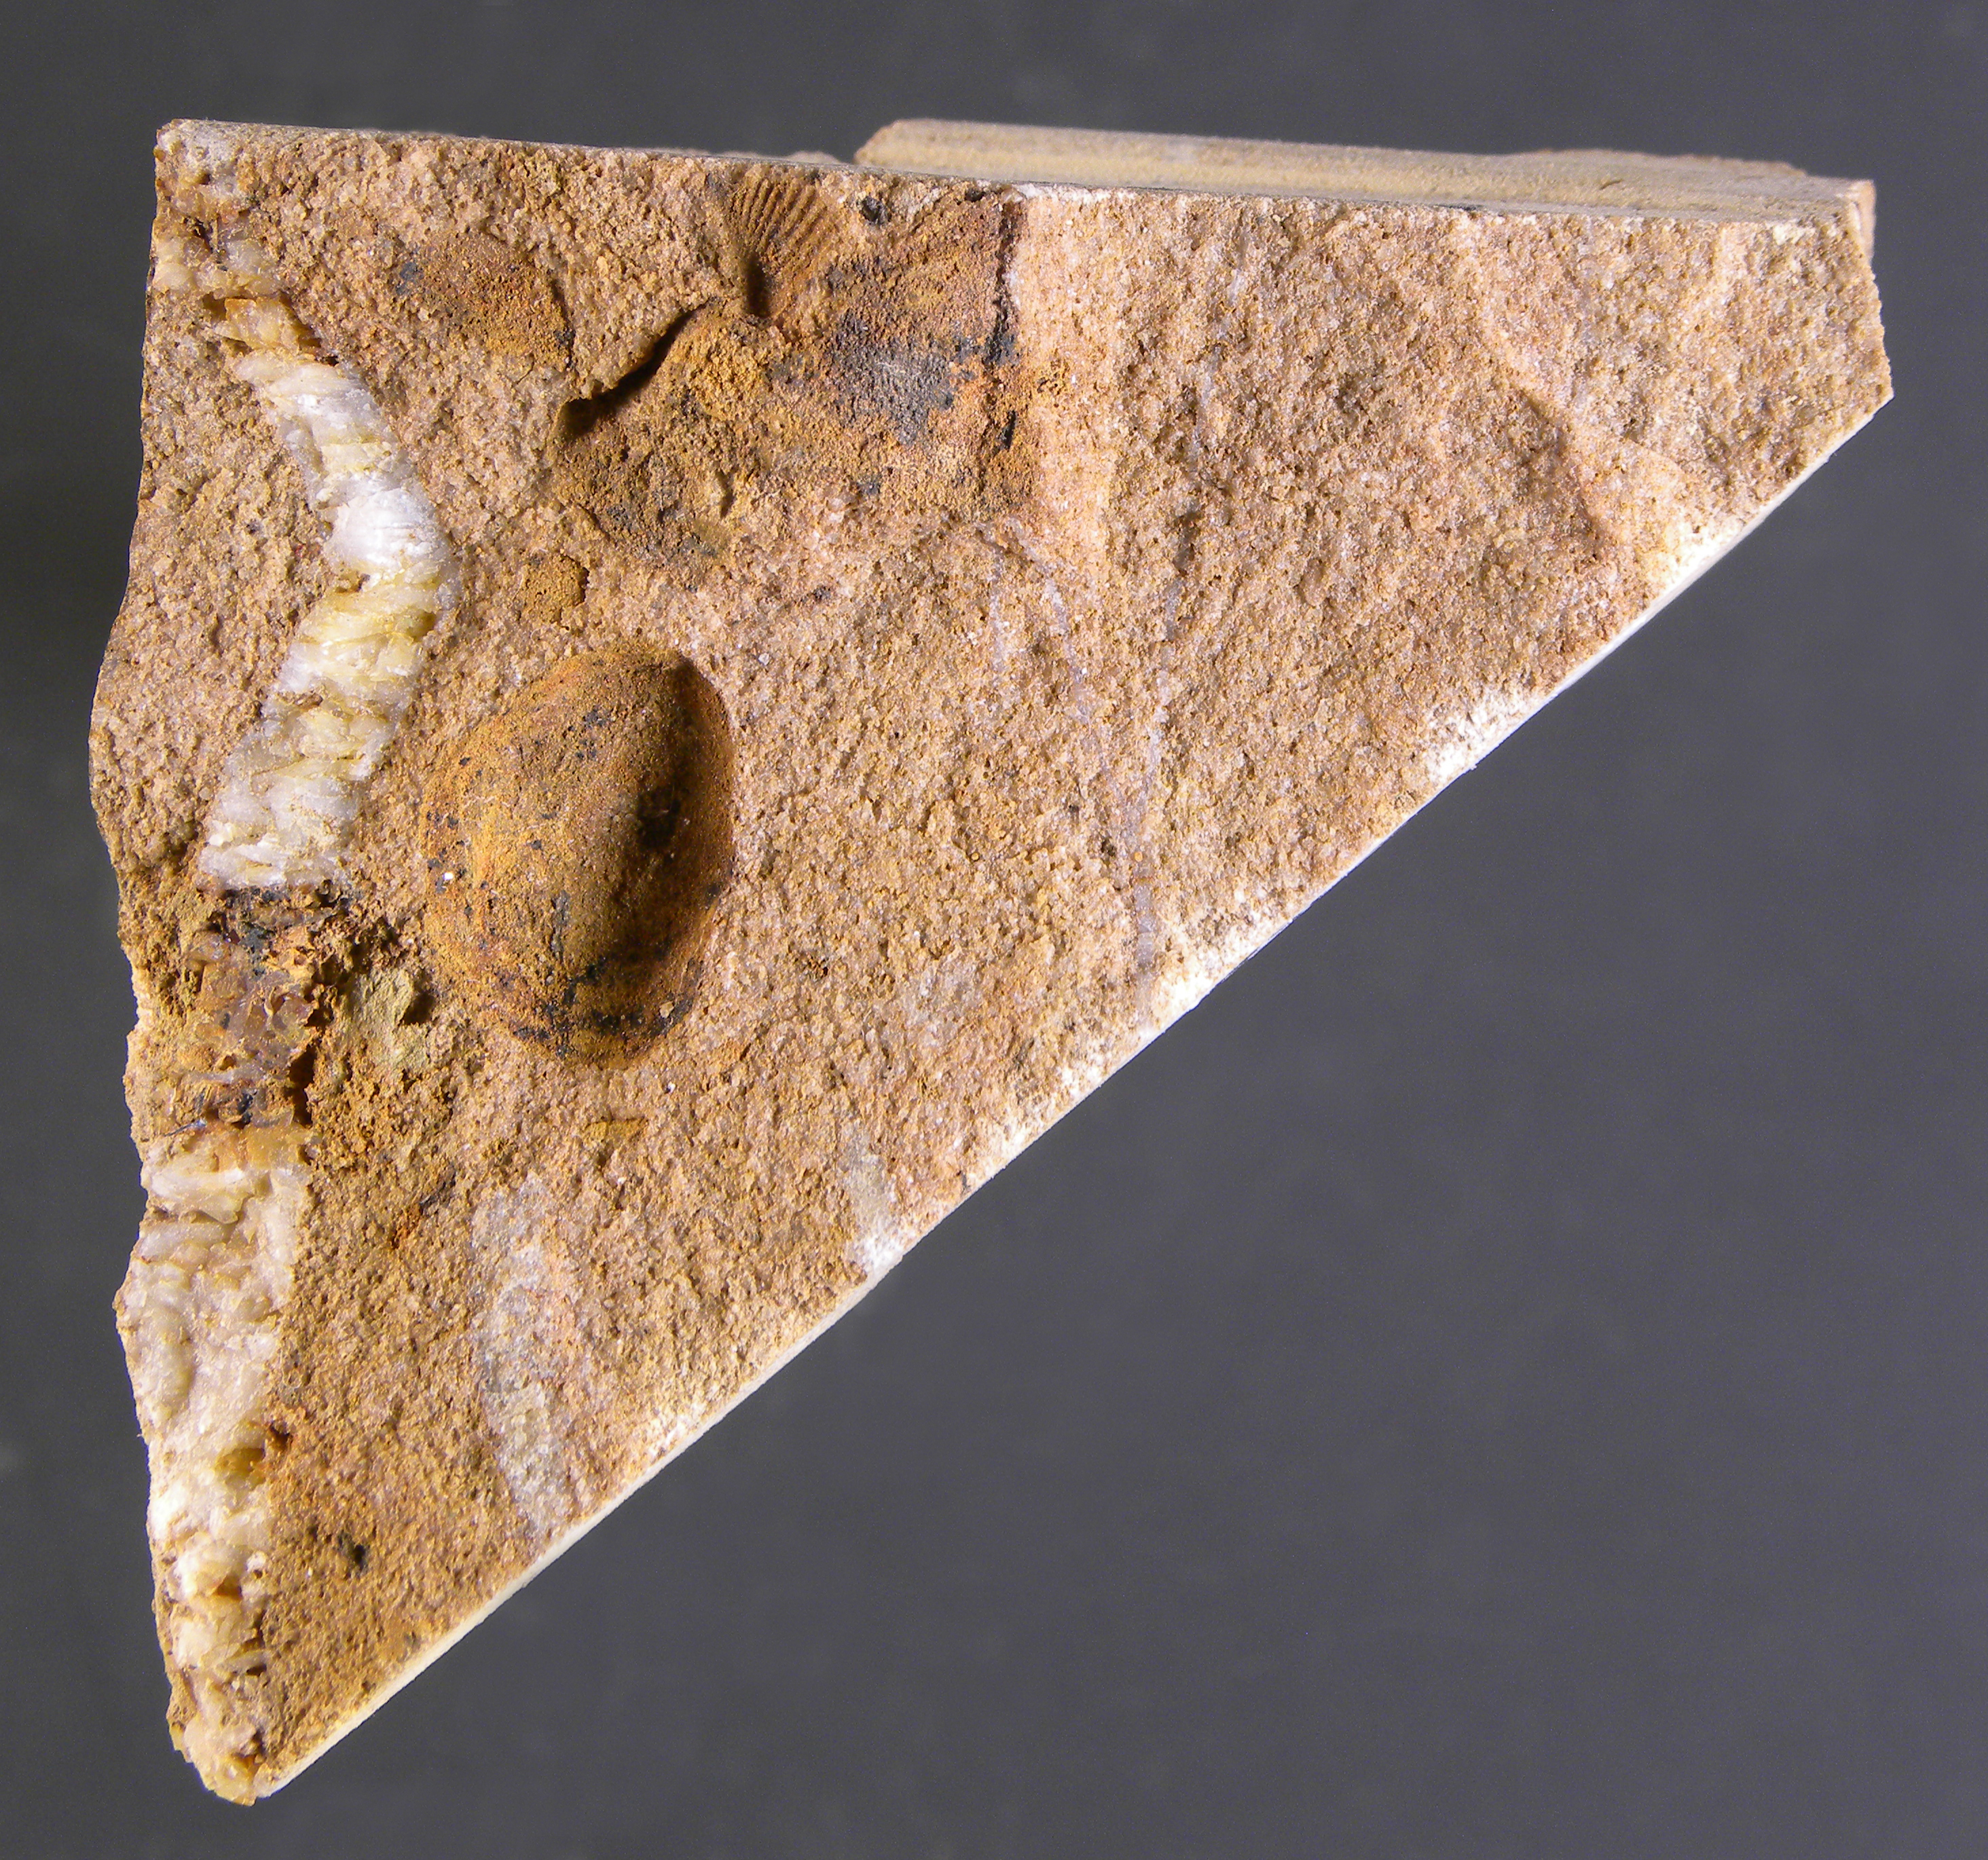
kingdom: Animalia
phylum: Brachiopoda
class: Craniata
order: Craniida
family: Craniidae
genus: Petrocrania
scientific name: Petrocrania
